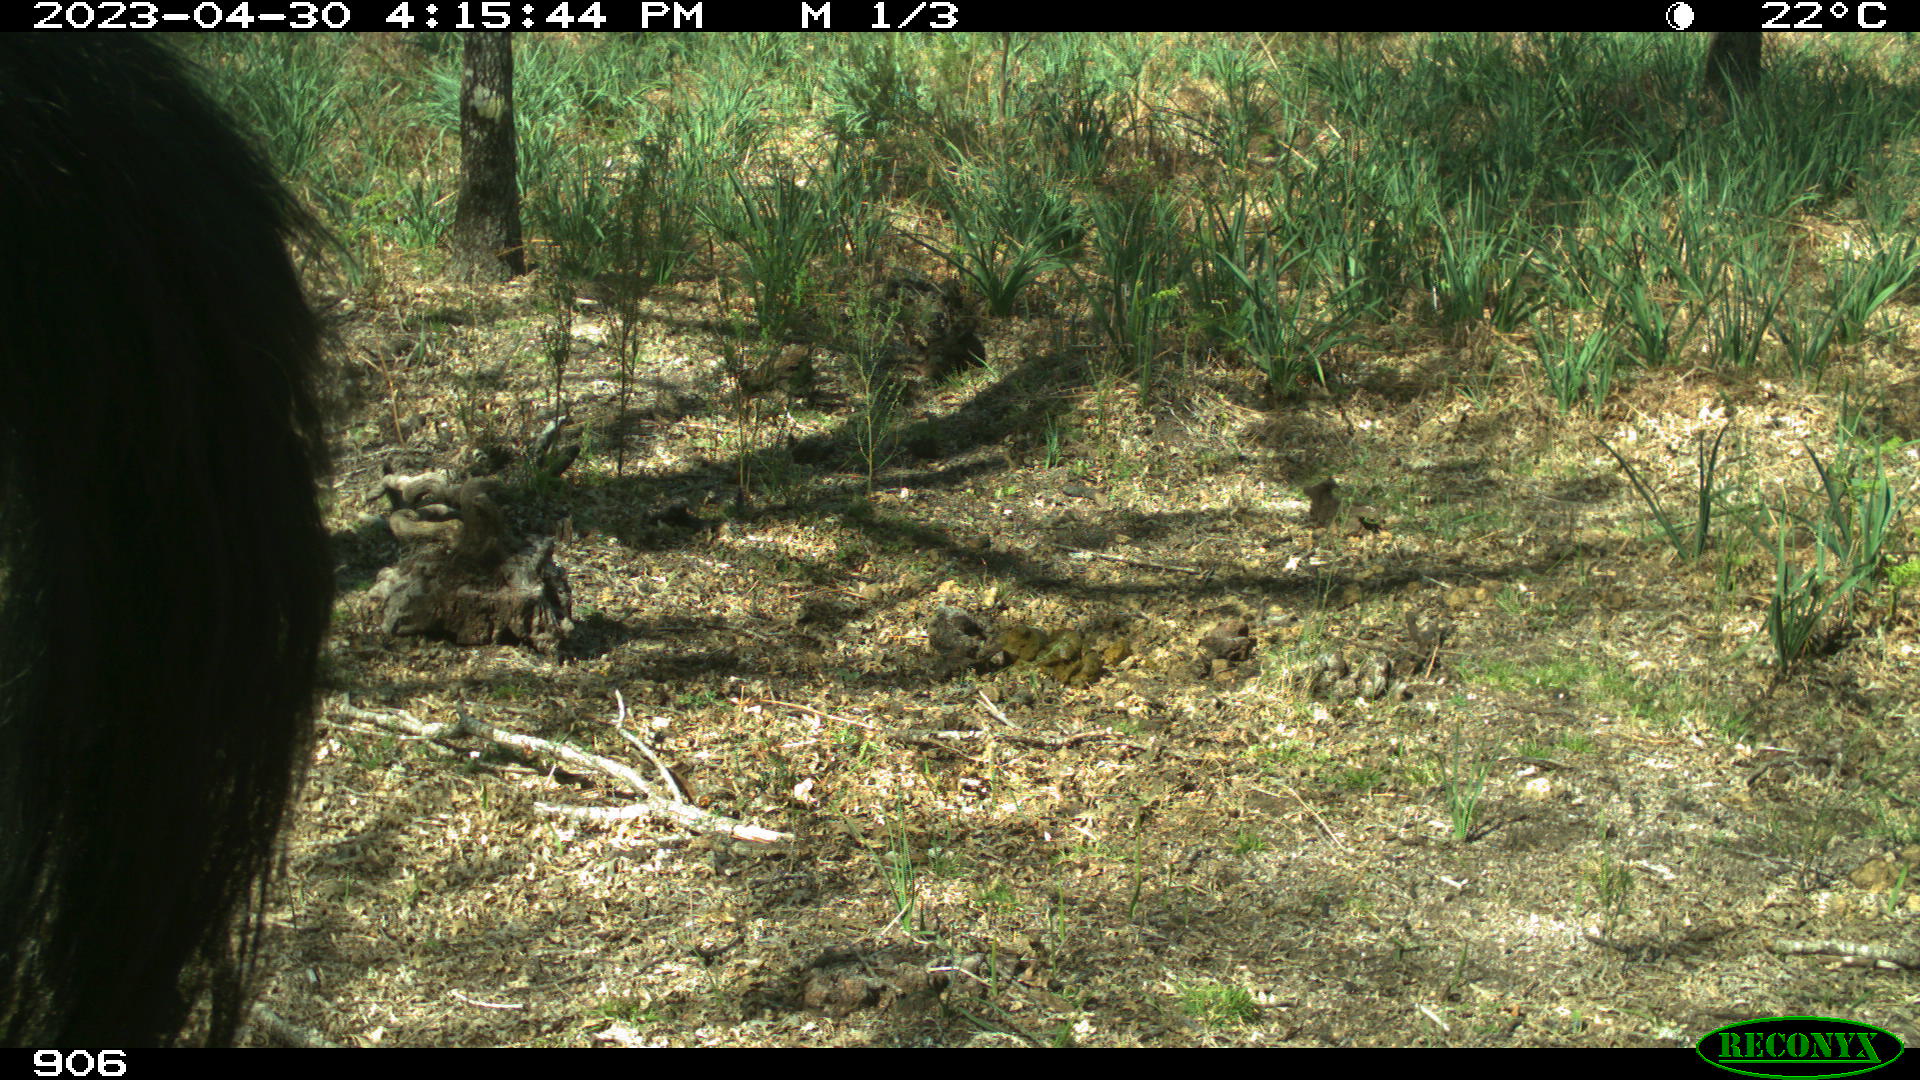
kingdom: Animalia
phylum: Chordata
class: Mammalia
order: Perissodactyla
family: Equidae
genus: Equus
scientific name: Equus caballus
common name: Horse
